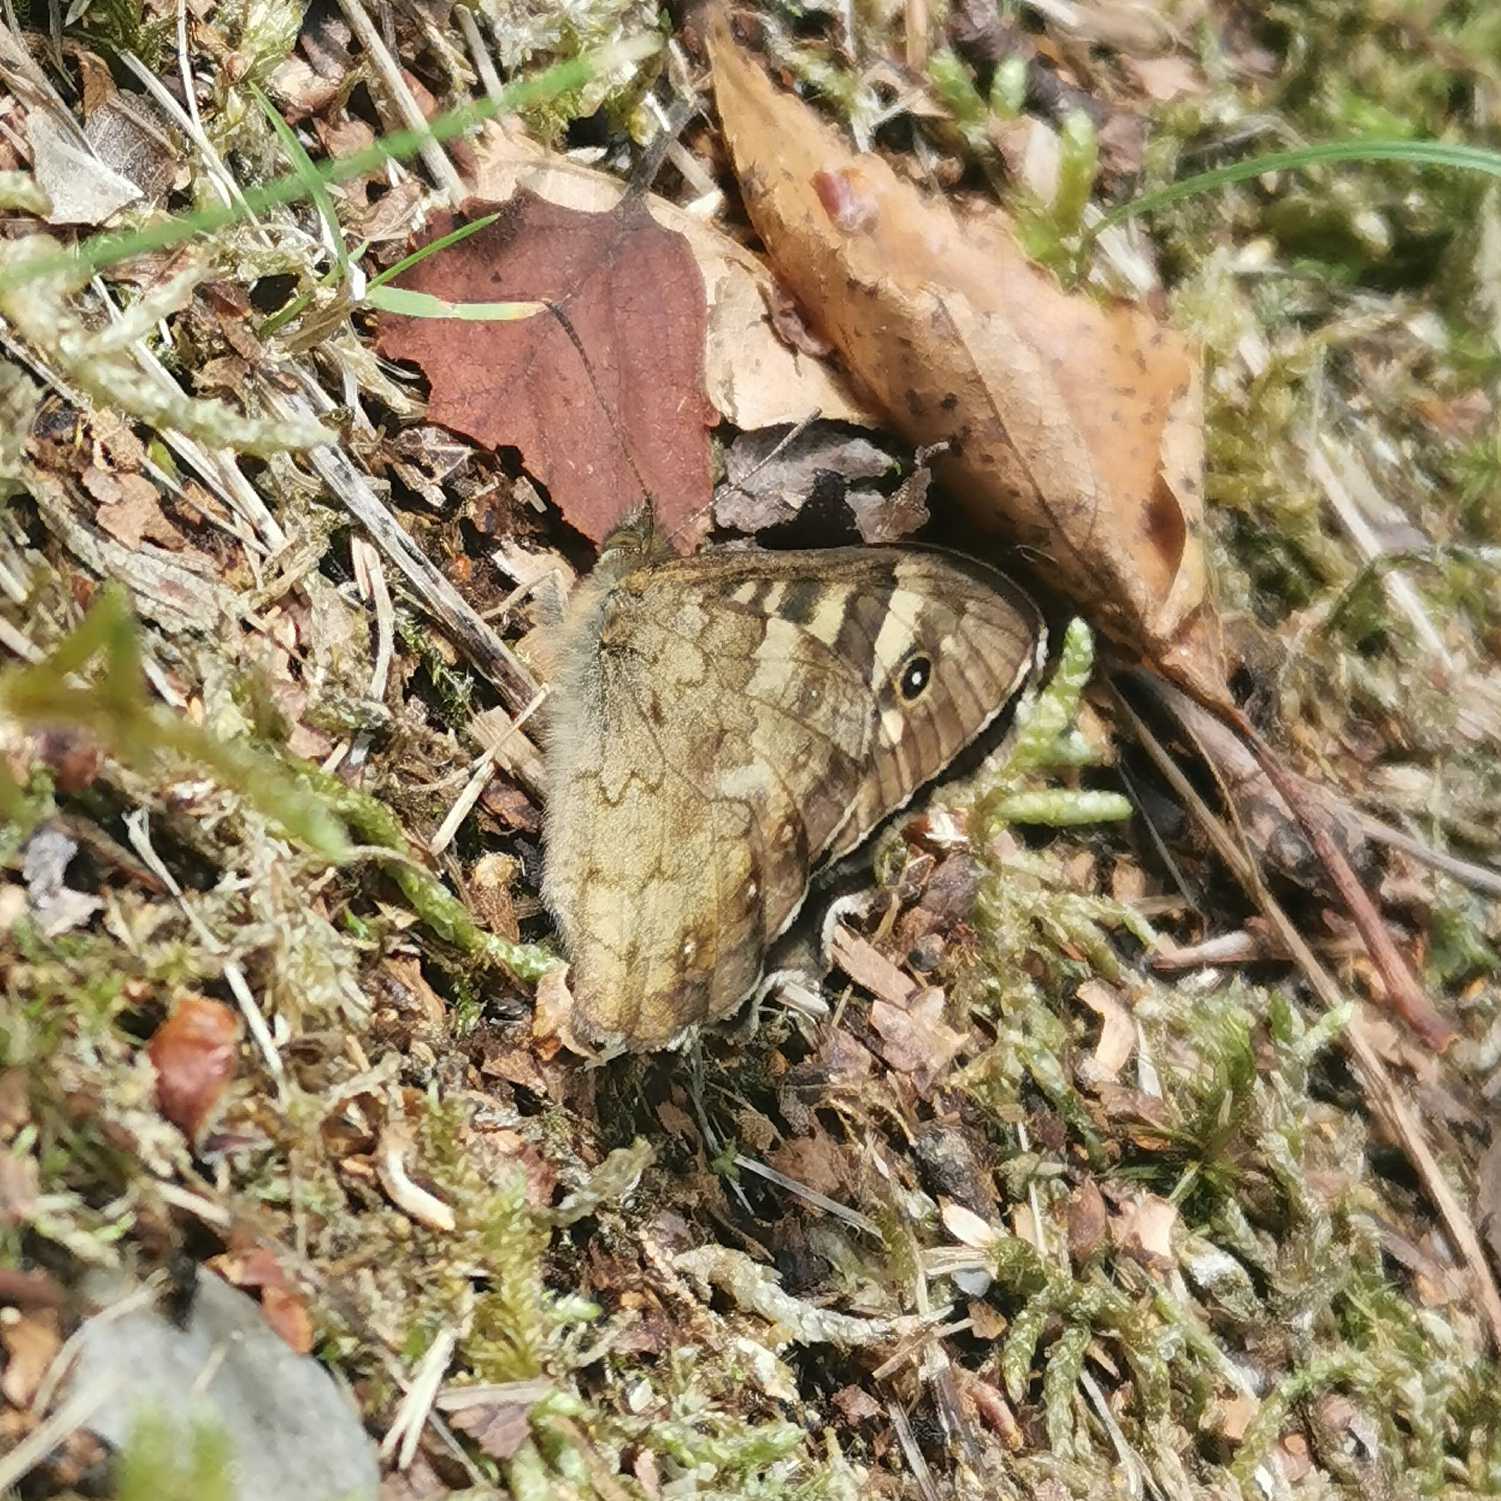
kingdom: Animalia
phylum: Arthropoda
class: Insecta
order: Lepidoptera
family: Nymphalidae
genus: Pararge
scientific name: Pararge aegeria
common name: Skovrandøje
